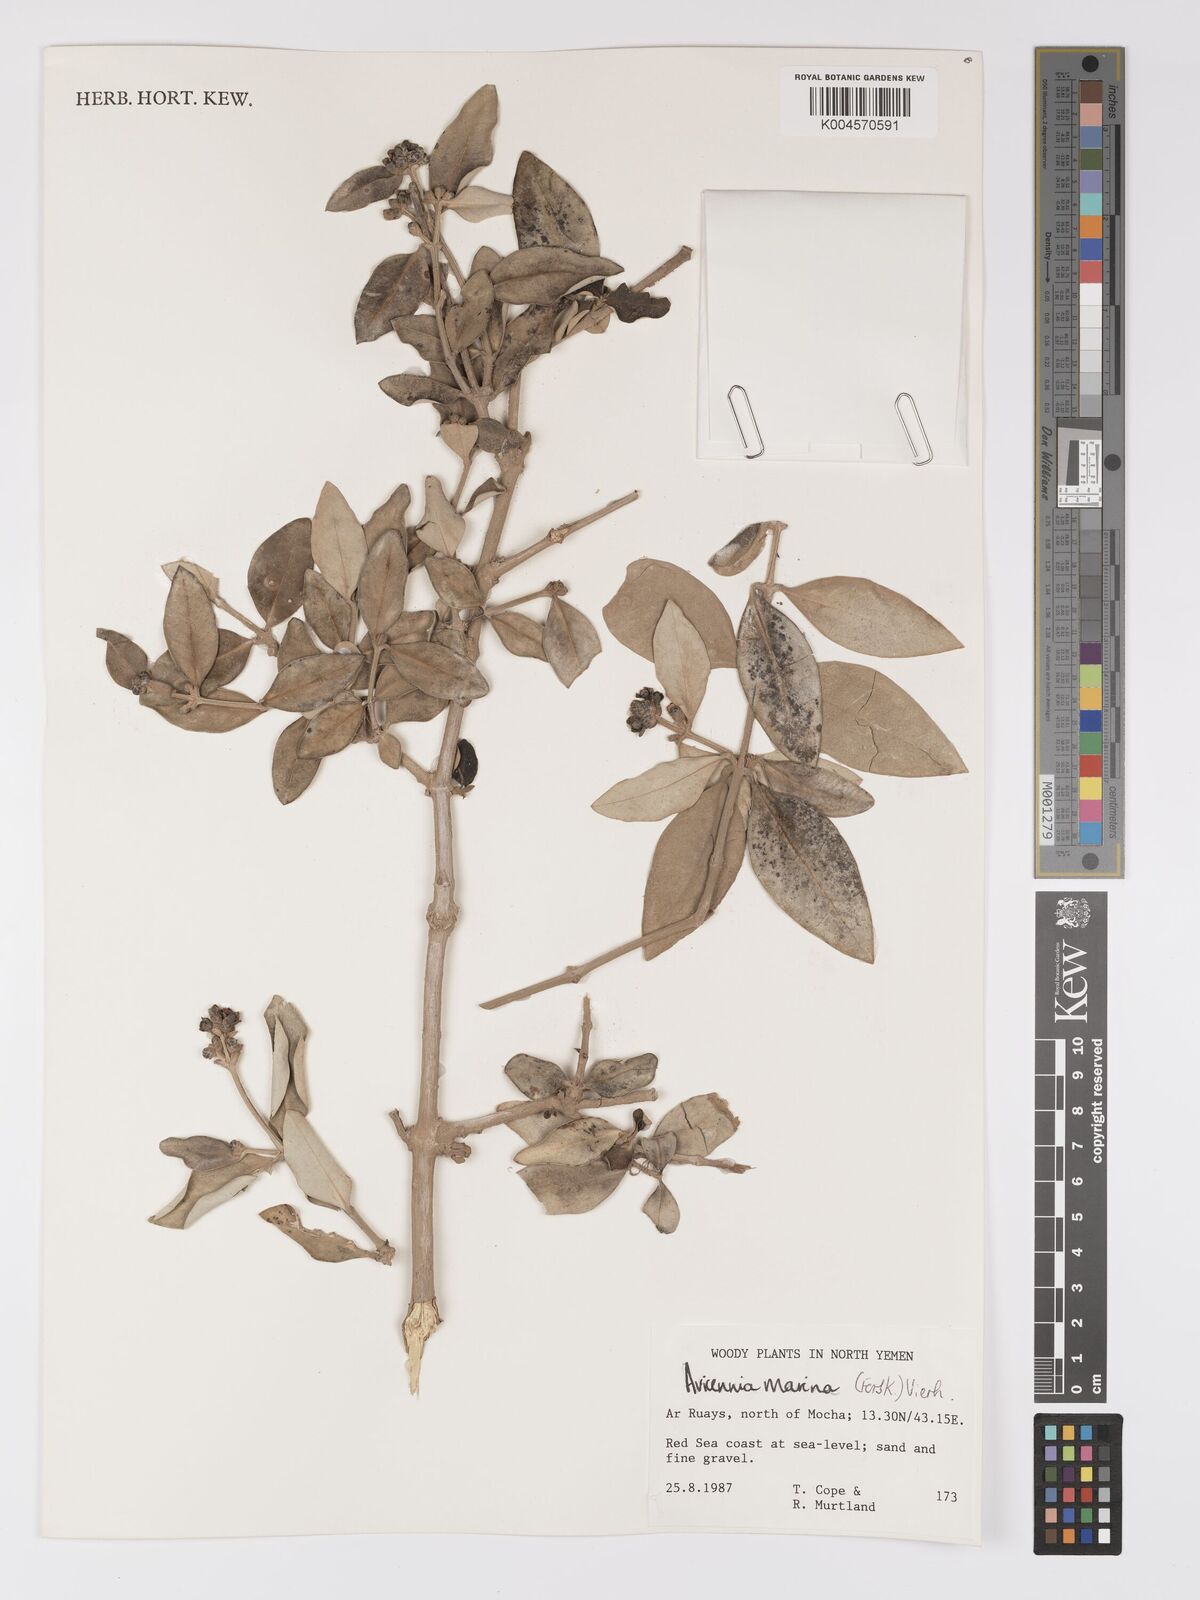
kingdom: Plantae
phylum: Tracheophyta
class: Magnoliopsida
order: Lamiales
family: Acanthaceae
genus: Avicennia
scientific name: Avicennia marina
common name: Gray mangrove
